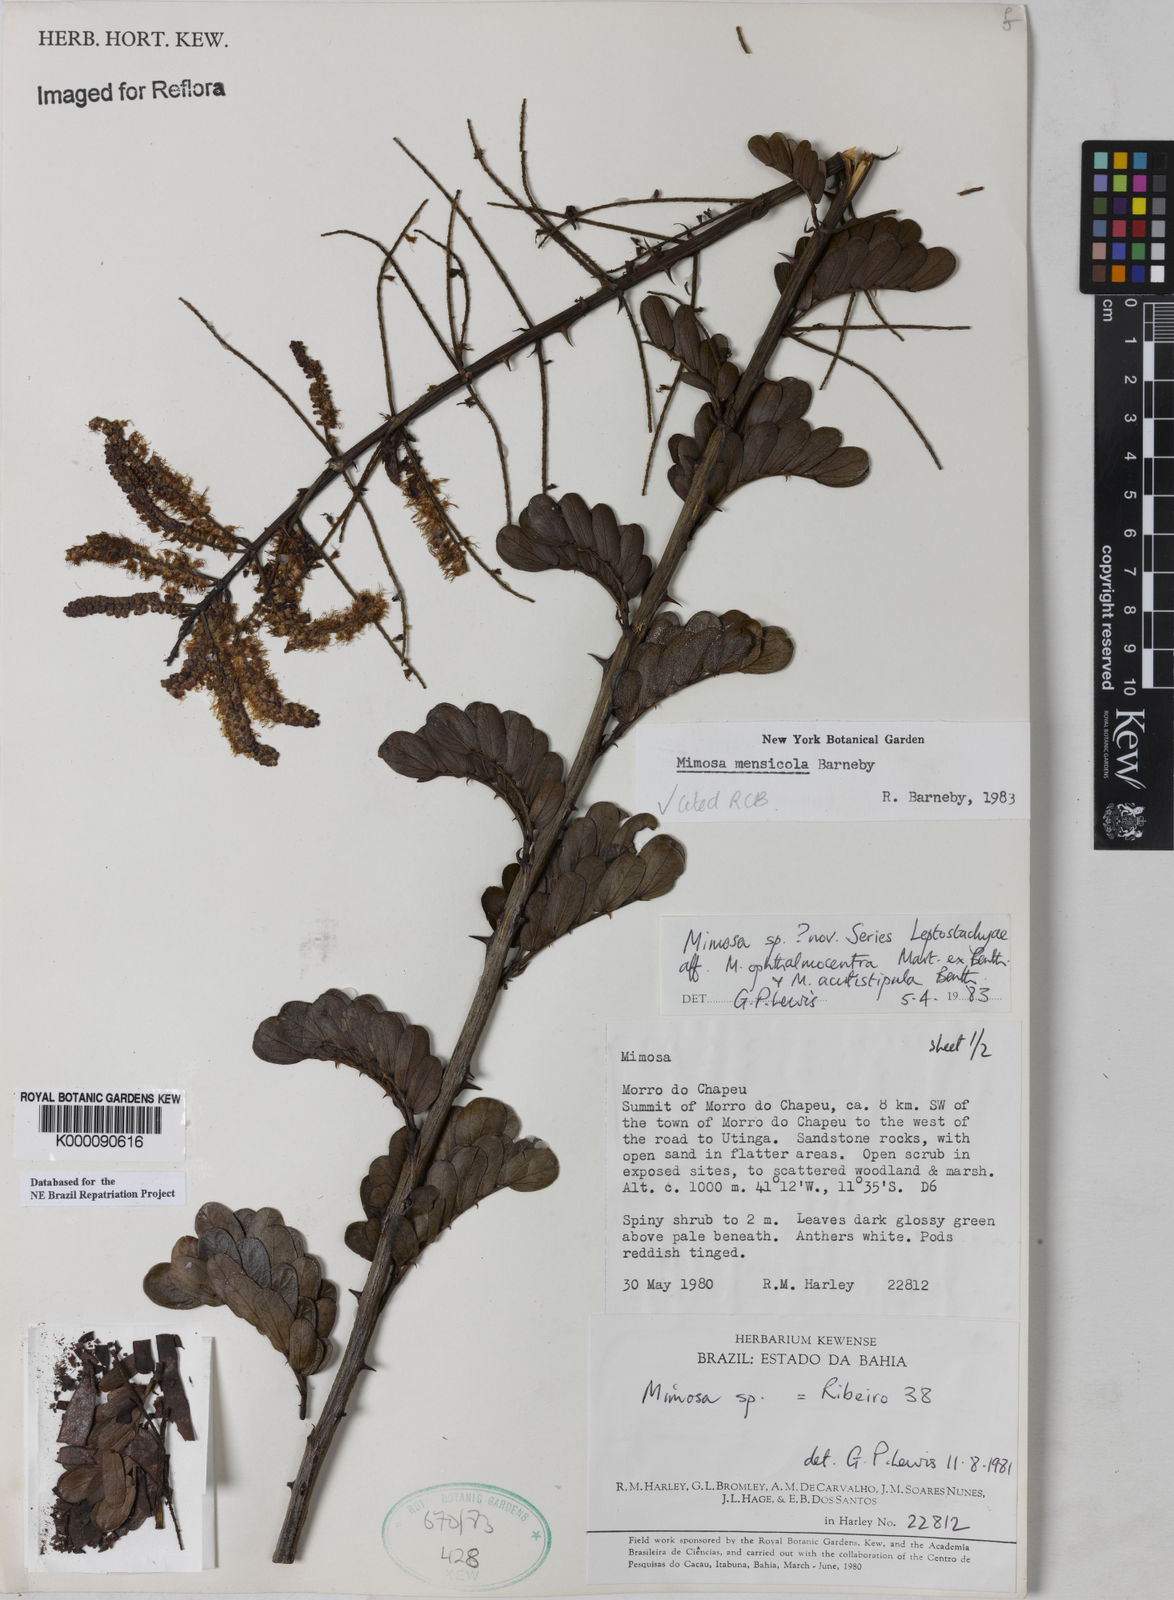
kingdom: Plantae
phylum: Tracheophyta
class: Magnoliopsida
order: Fabales
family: Fabaceae
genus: Mimosa
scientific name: Mimosa mensicola
